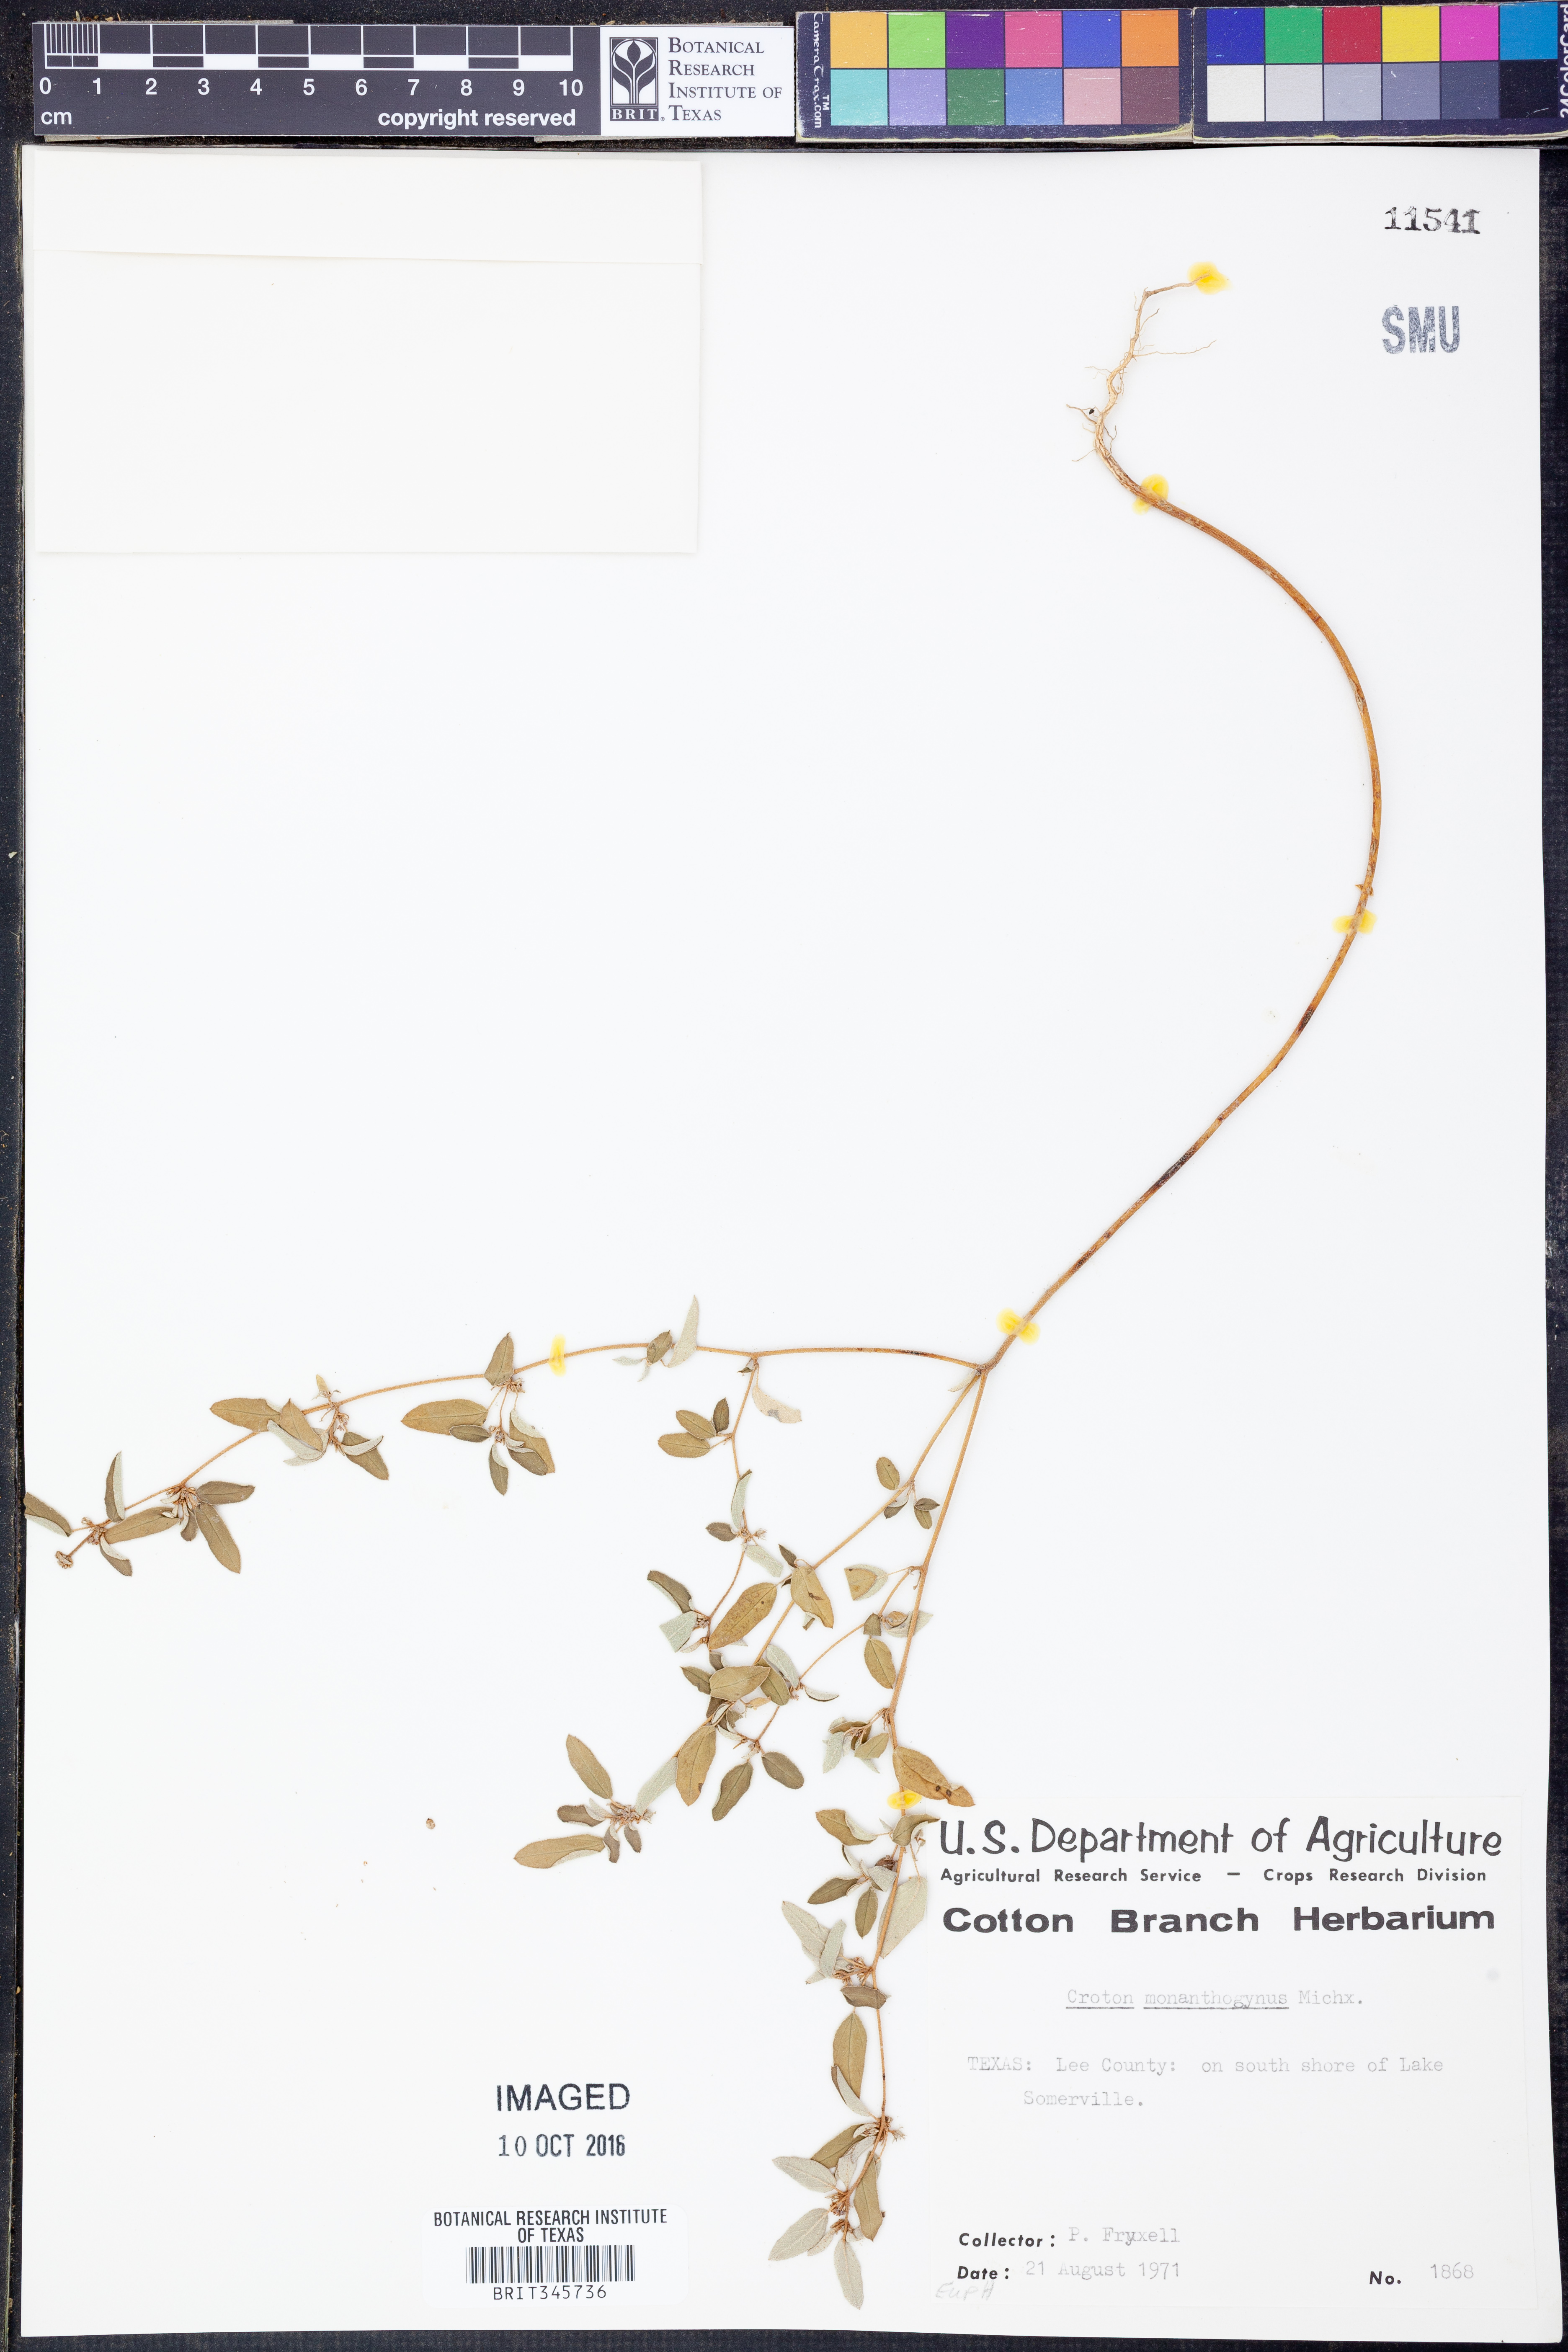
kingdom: Plantae
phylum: Tracheophyta
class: Magnoliopsida
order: Malpighiales
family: Euphorbiaceae
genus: Croton
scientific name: Croton monanthogynus
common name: One-seed croton
